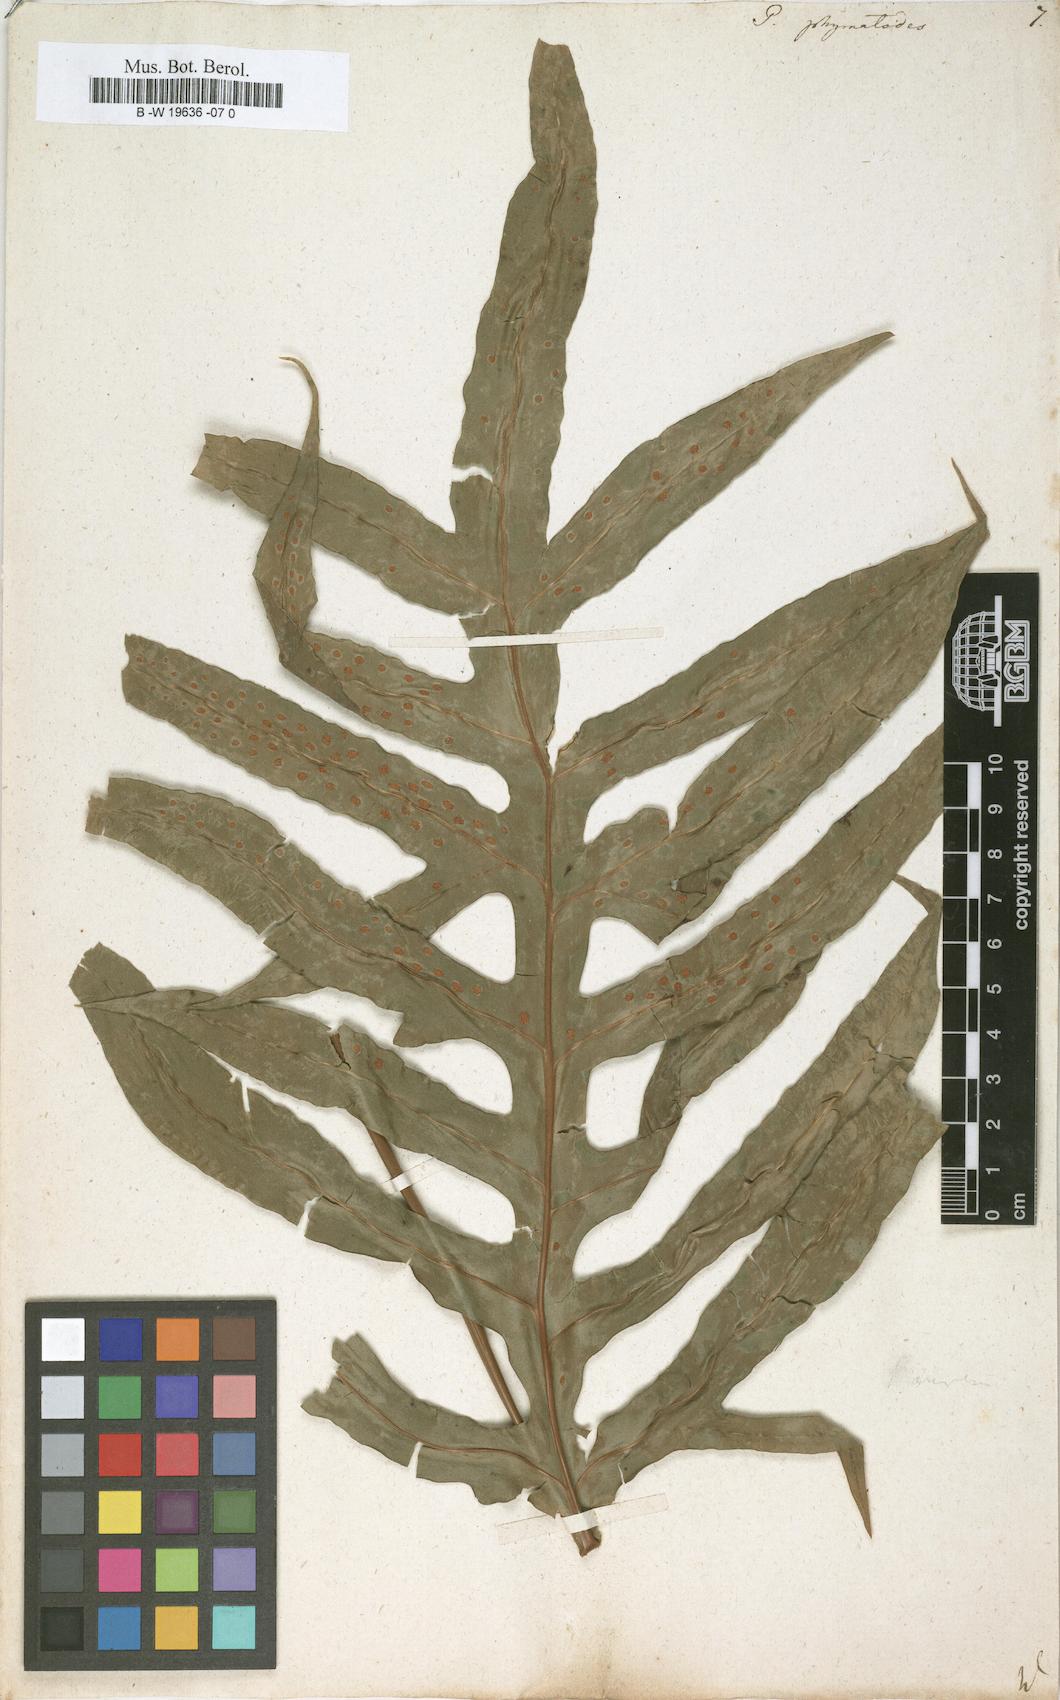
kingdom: Plantae
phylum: Tracheophyta
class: Polypodiopsida
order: Polypodiales
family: Polypodiaceae
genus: Microsorum
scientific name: Microsorum scolopendria
